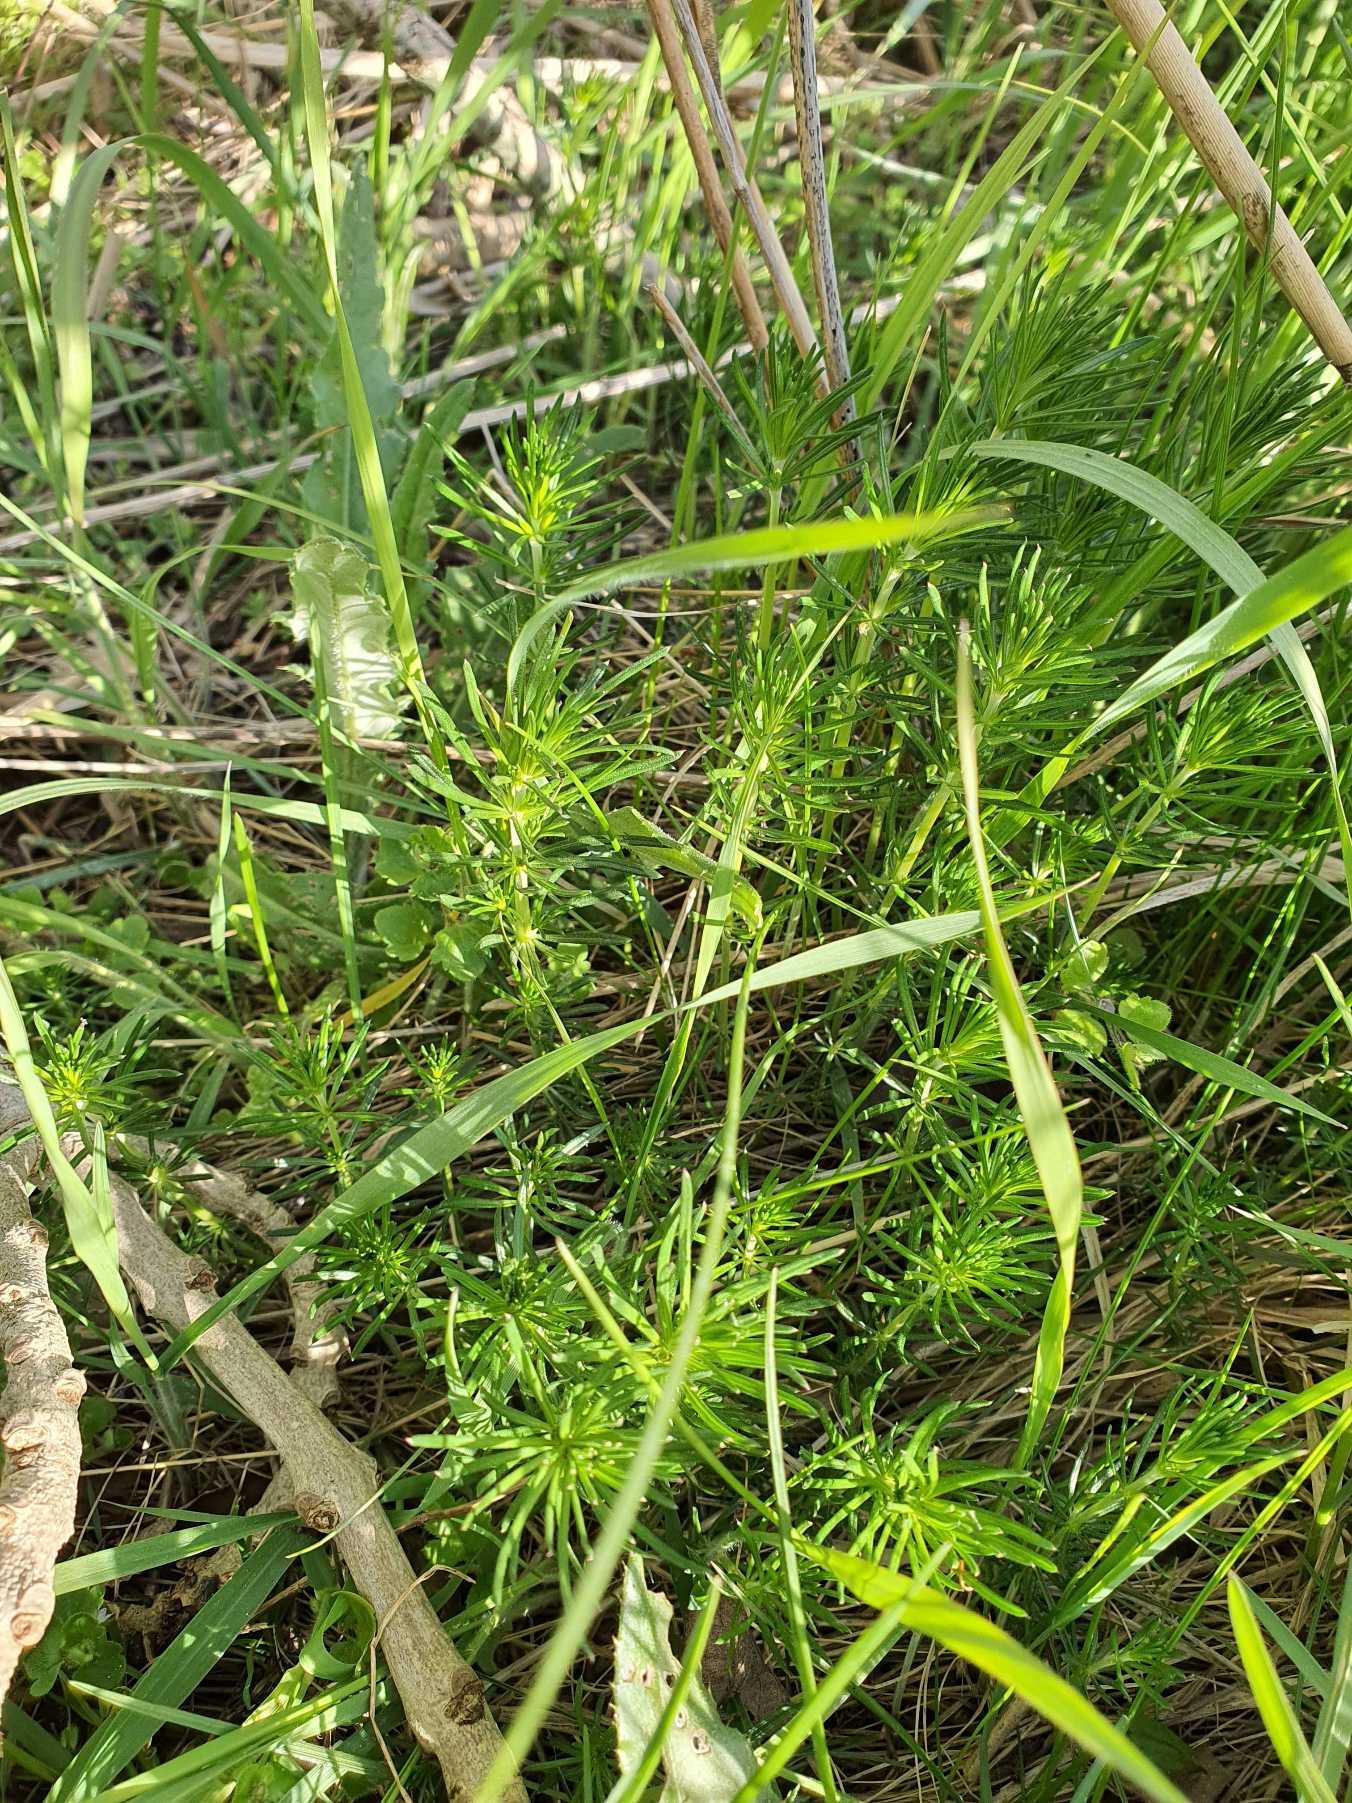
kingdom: Plantae
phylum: Tracheophyta
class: Magnoliopsida
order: Gentianales
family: Rubiaceae
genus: Galium
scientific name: Galium verum
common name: Gul snerre
